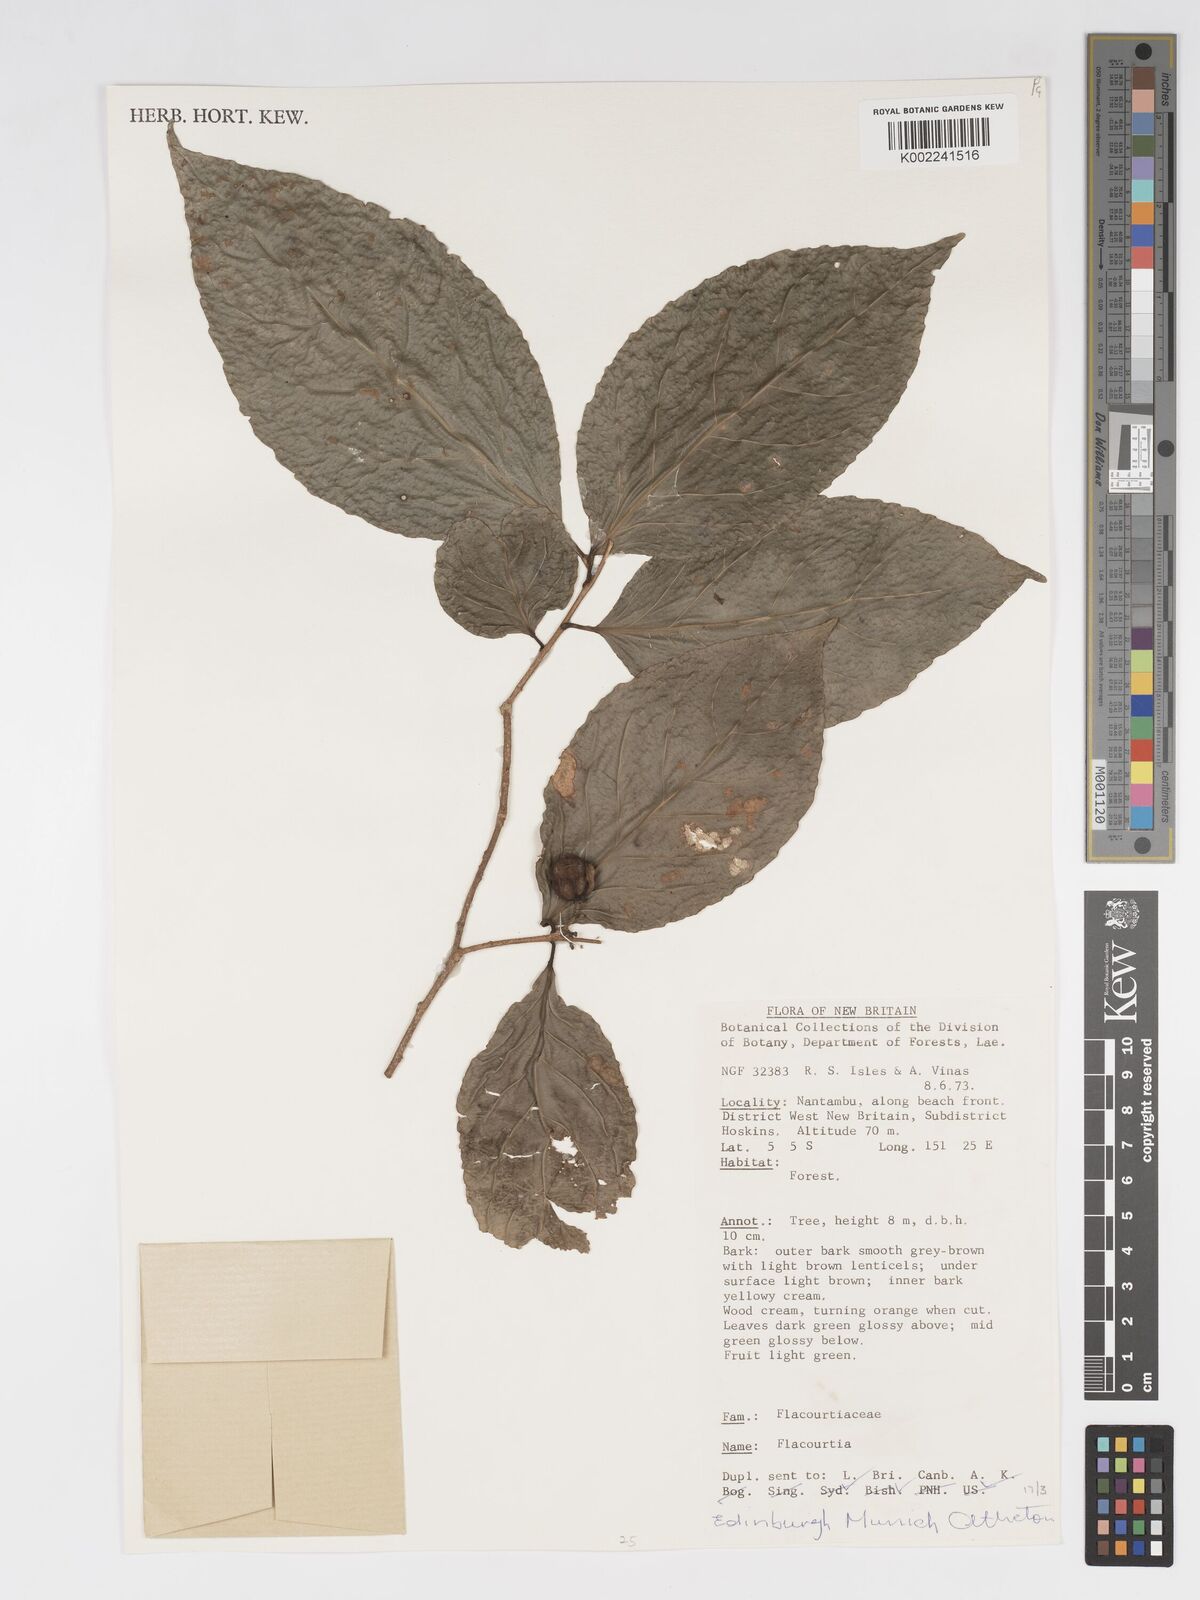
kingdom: Plantae
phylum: Tracheophyta
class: Magnoliopsida
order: Malpighiales
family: Salicaceae
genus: Flacourtia
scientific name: Flacourtia
